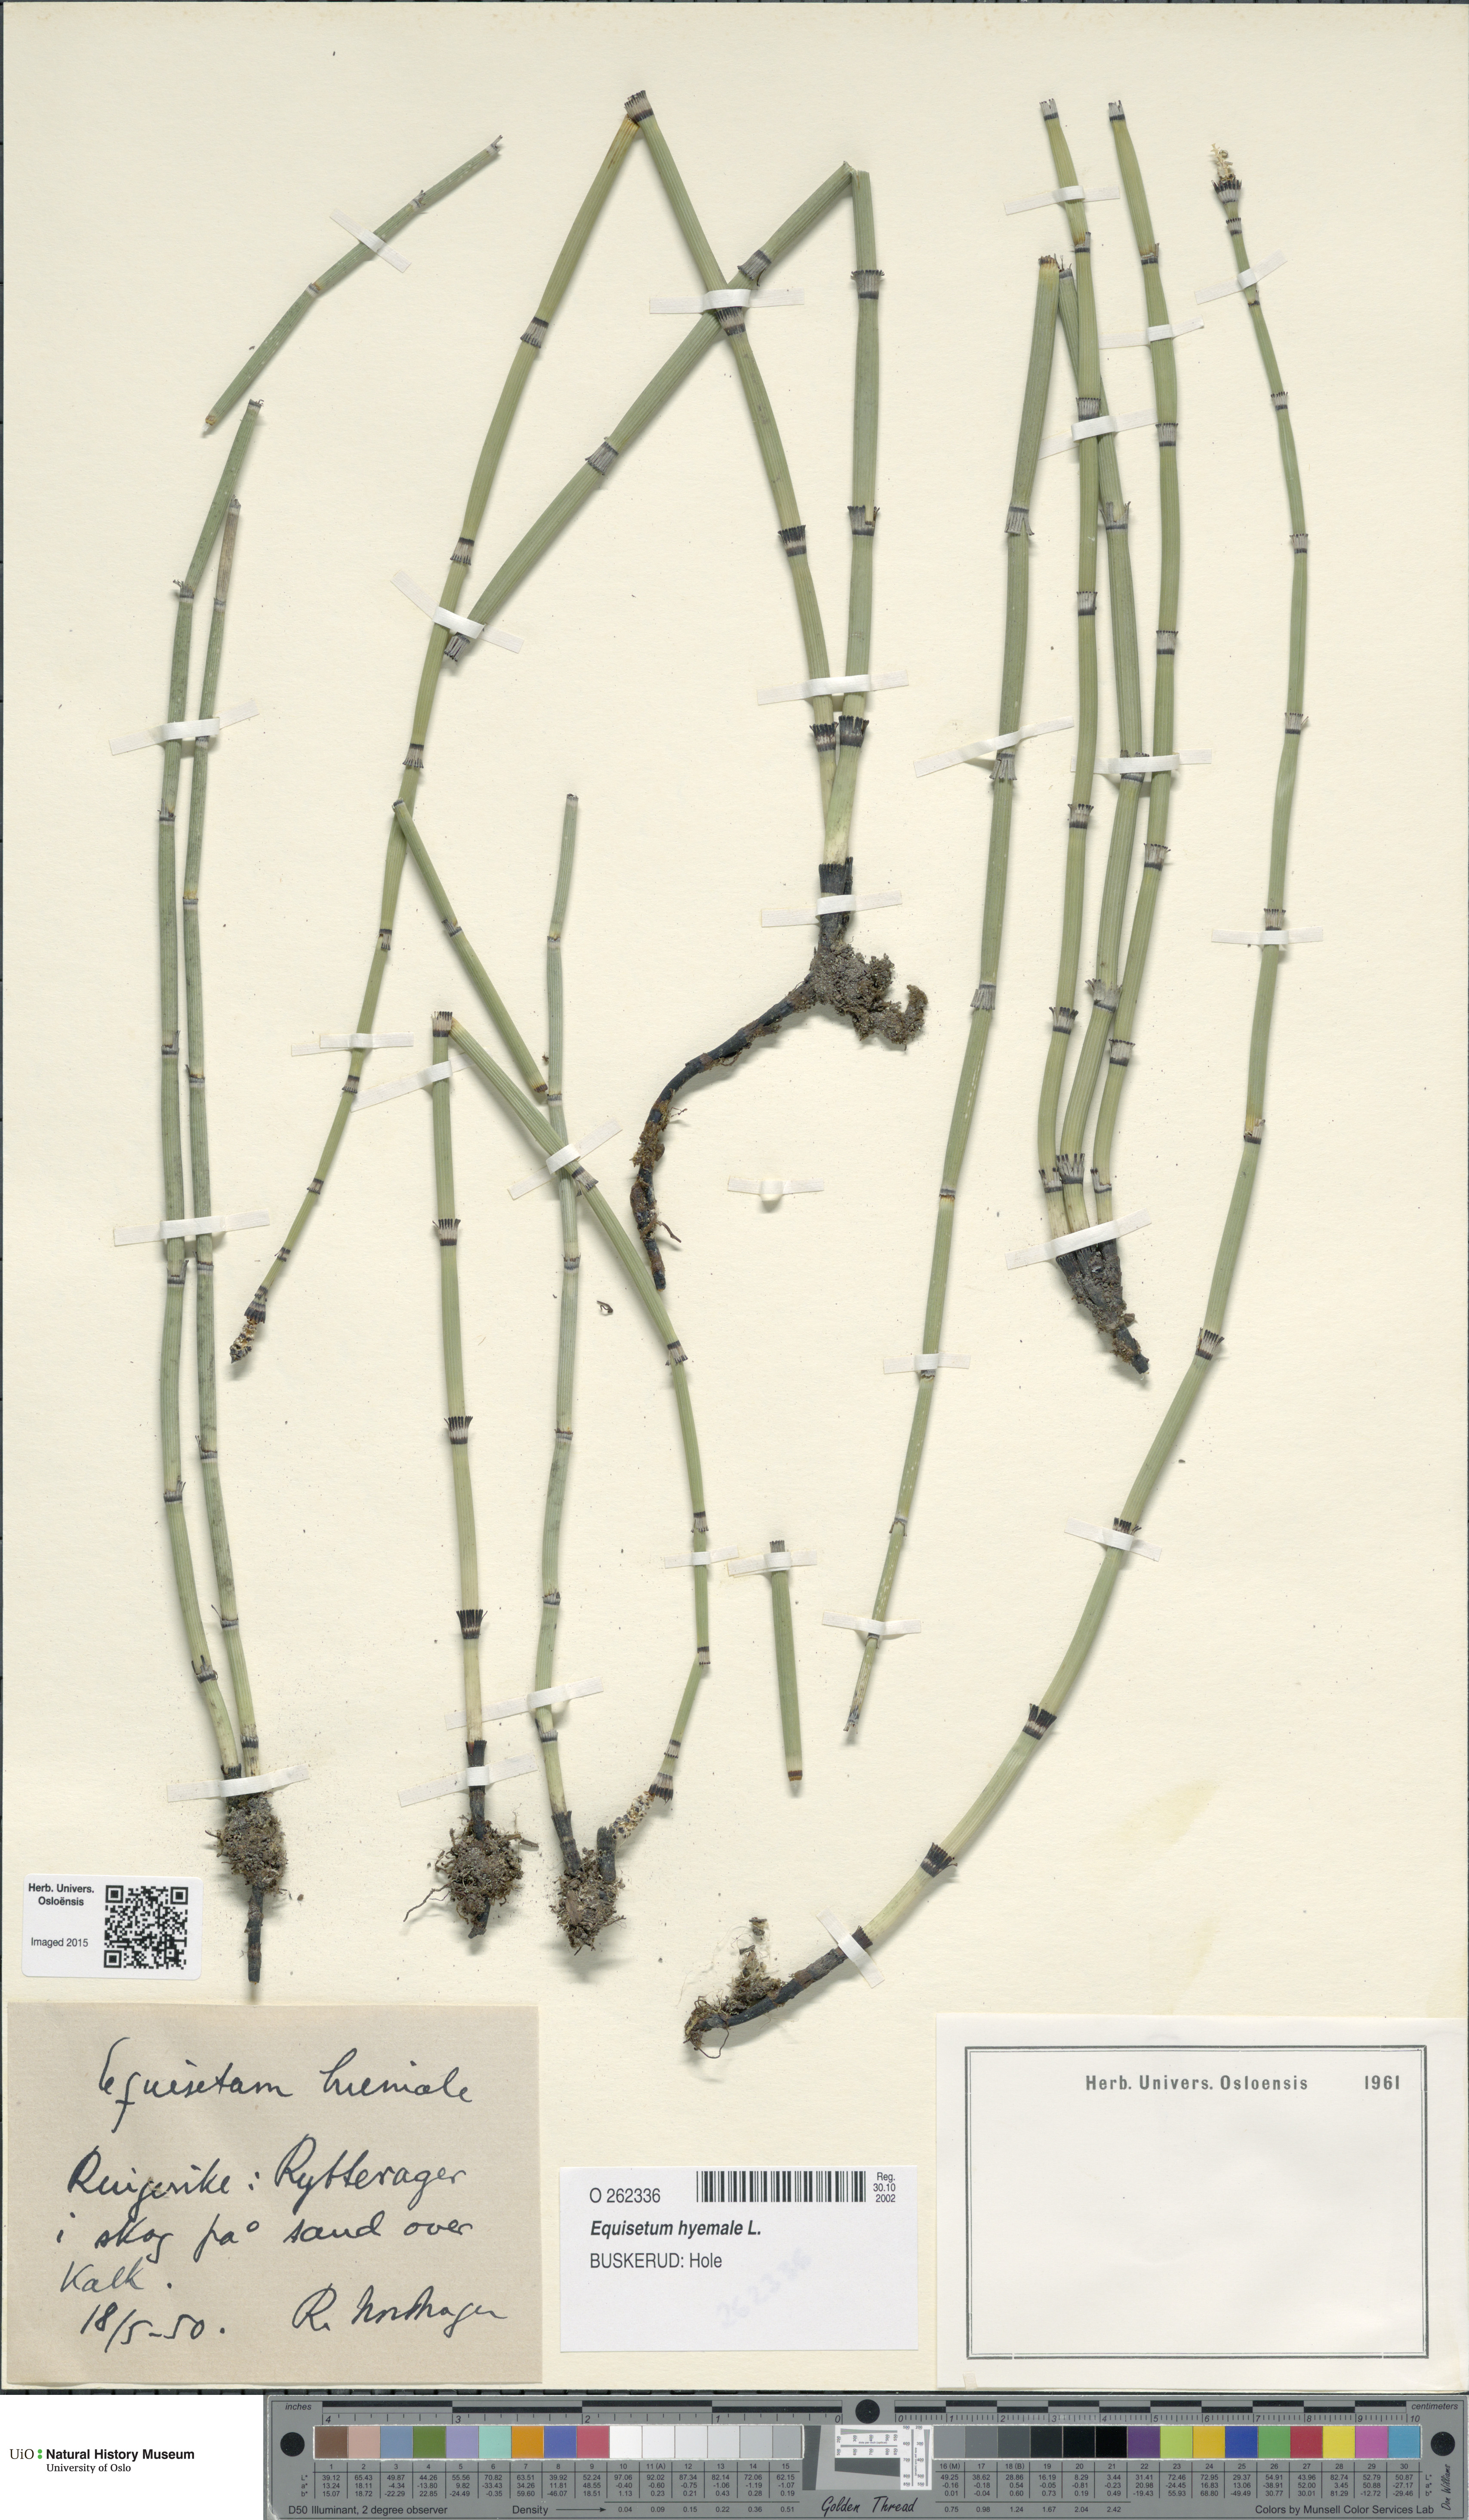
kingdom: Plantae
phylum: Tracheophyta
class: Polypodiopsida
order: Equisetales
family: Equisetaceae
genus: Equisetum
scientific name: Equisetum hyemale
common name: Rough horsetail
